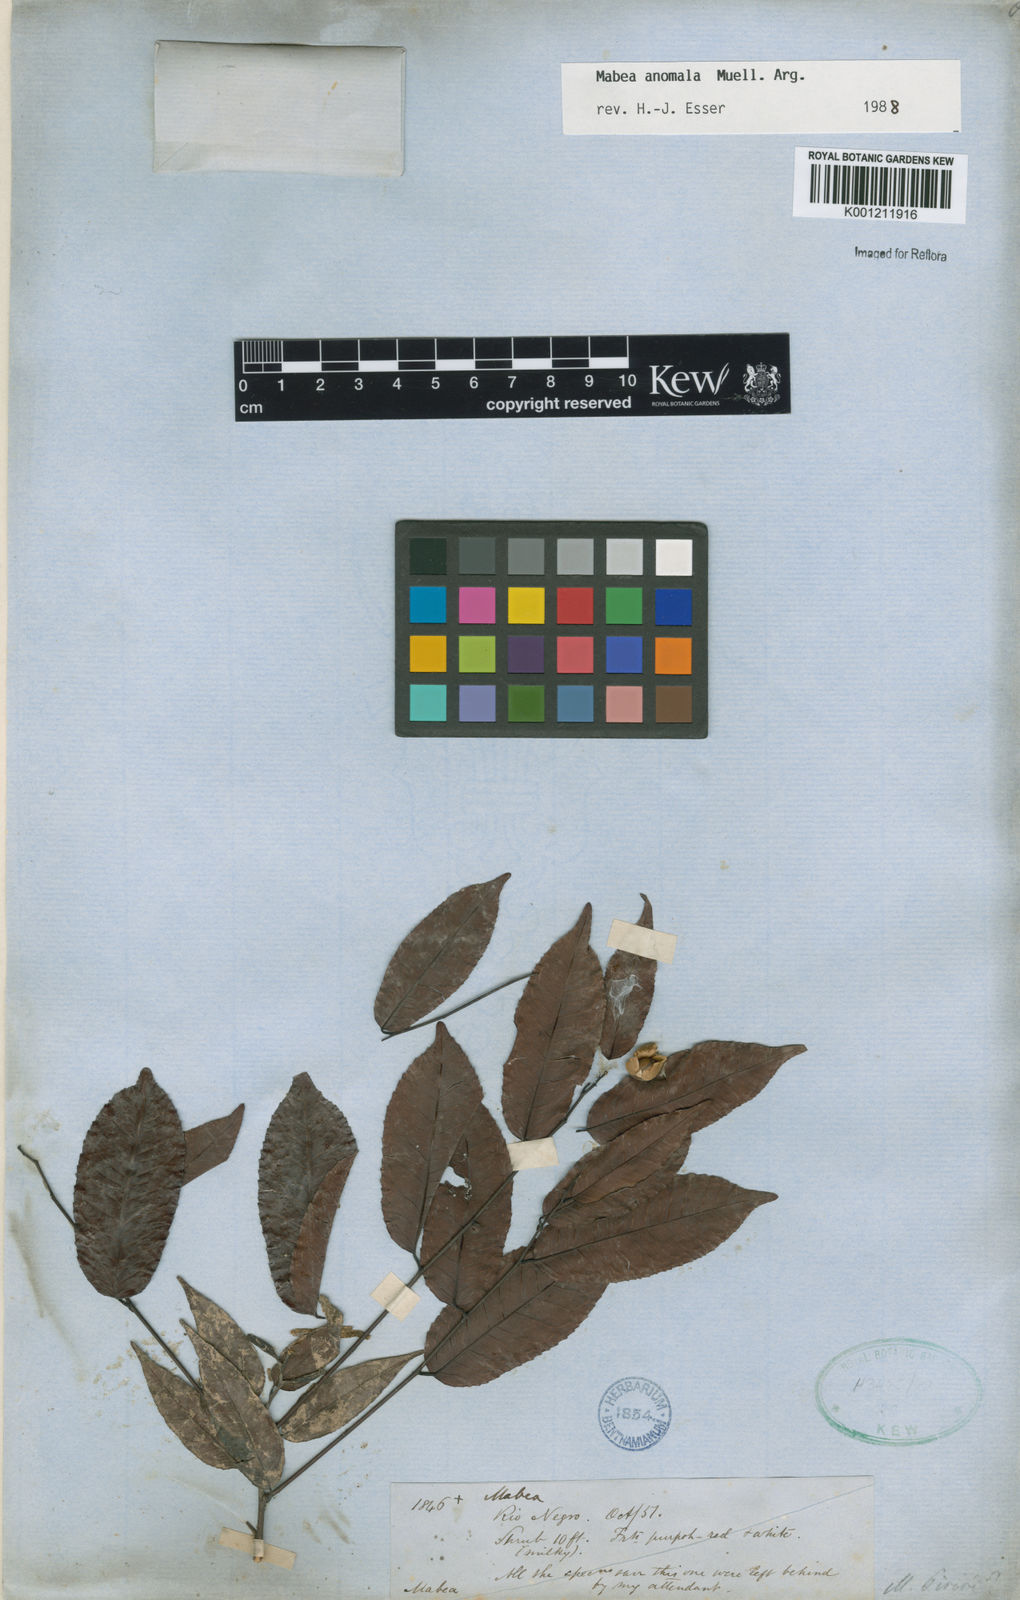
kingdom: Plantae
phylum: Tracheophyta
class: Magnoliopsida
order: Malpighiales
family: Euphorbiaceae
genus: Mabea
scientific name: Mabea
